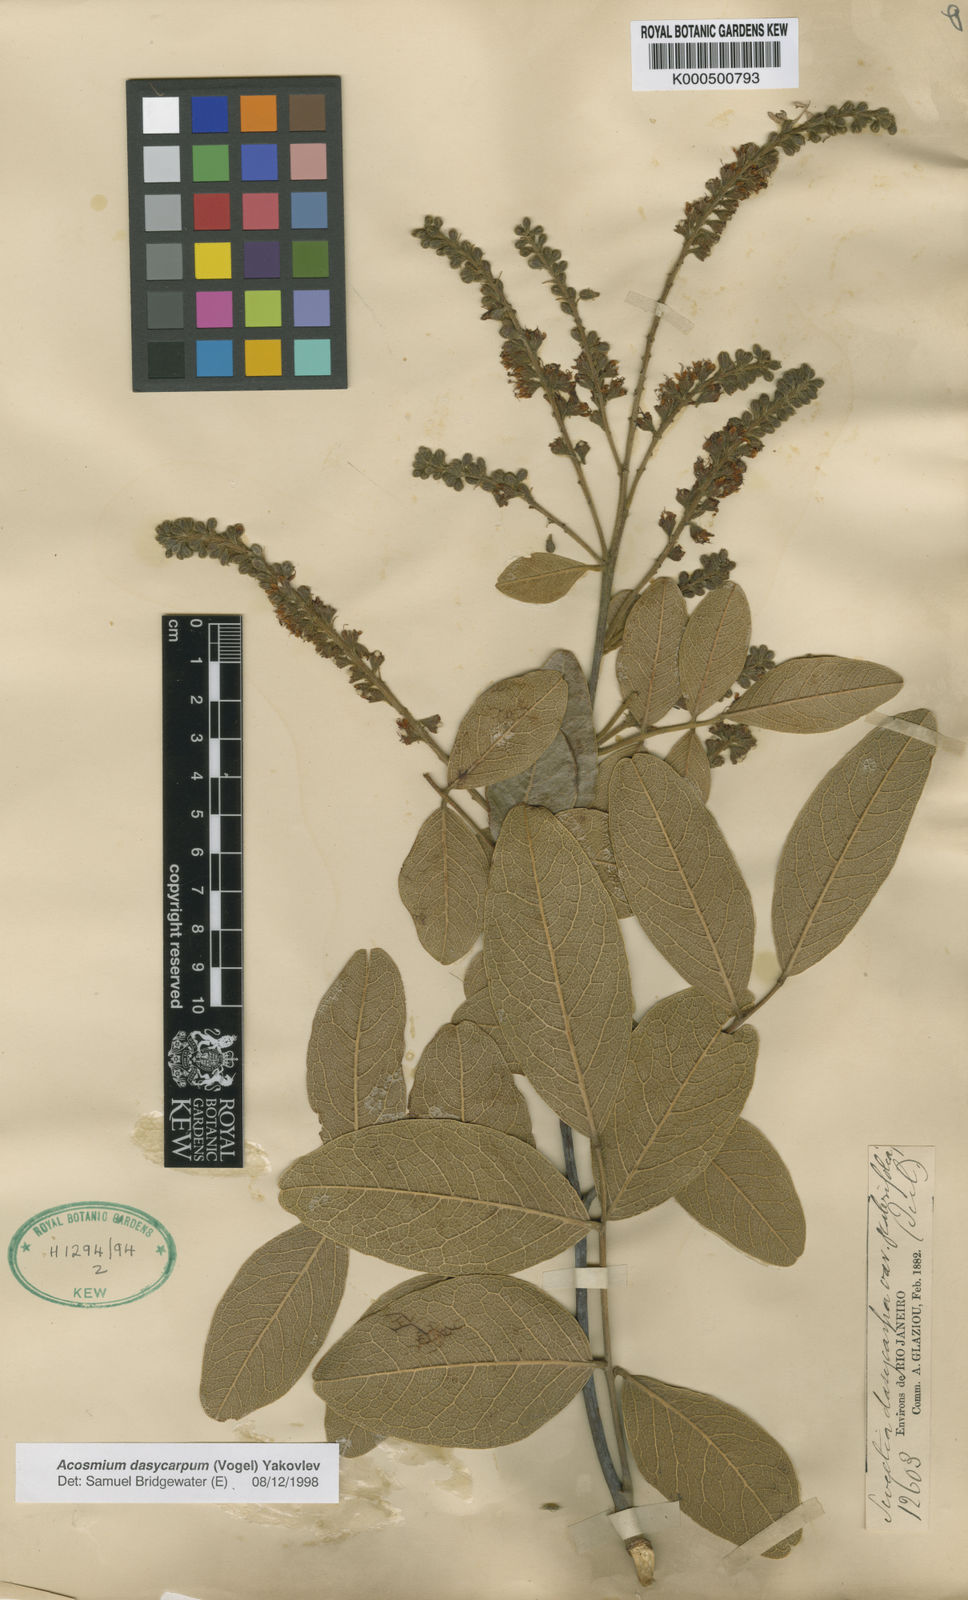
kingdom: Plantae
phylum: Tracheophyta
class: Magnoliopsida
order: Fabales
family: Fabaceae
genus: Leptolobium
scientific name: Leptolobium dasycarpum
